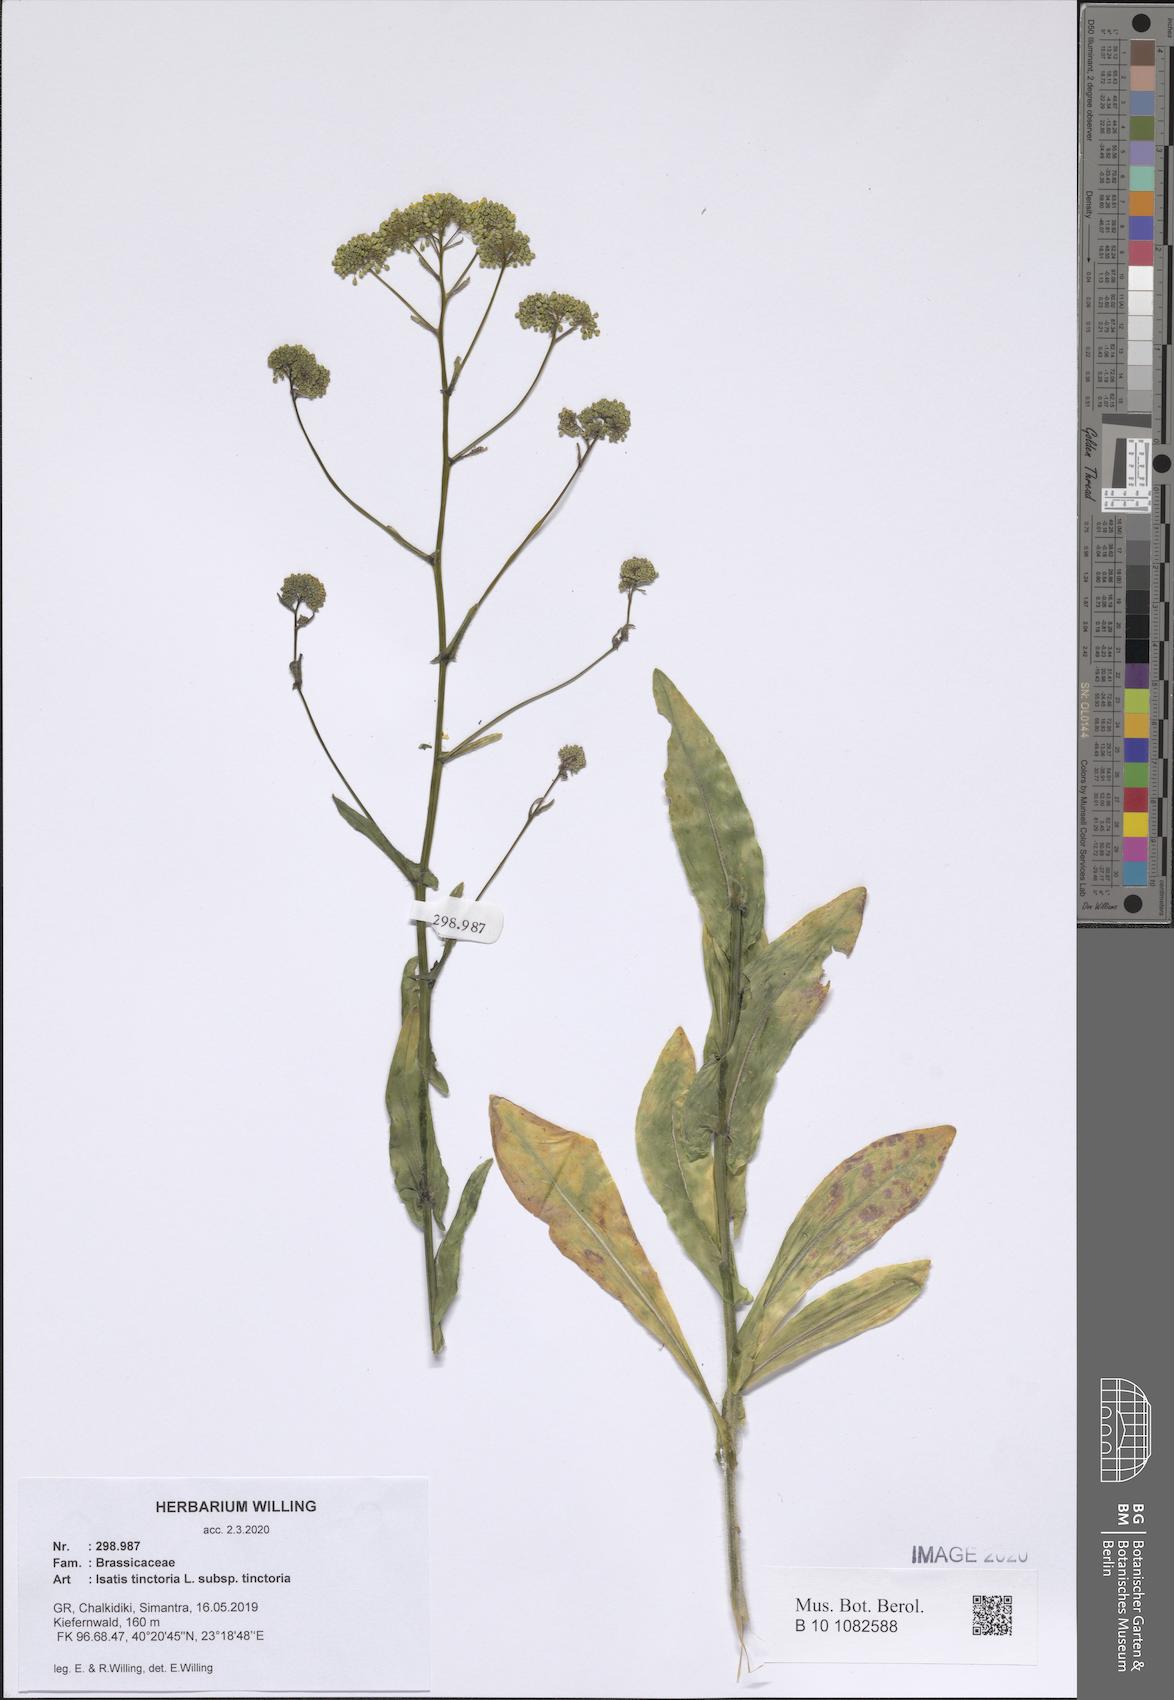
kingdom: Plantae
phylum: Tracheophyta
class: Magnoliopsida
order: Brassicales
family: Brassicaceae
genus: Isatis
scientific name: Isatis tinctoria
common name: Woad
